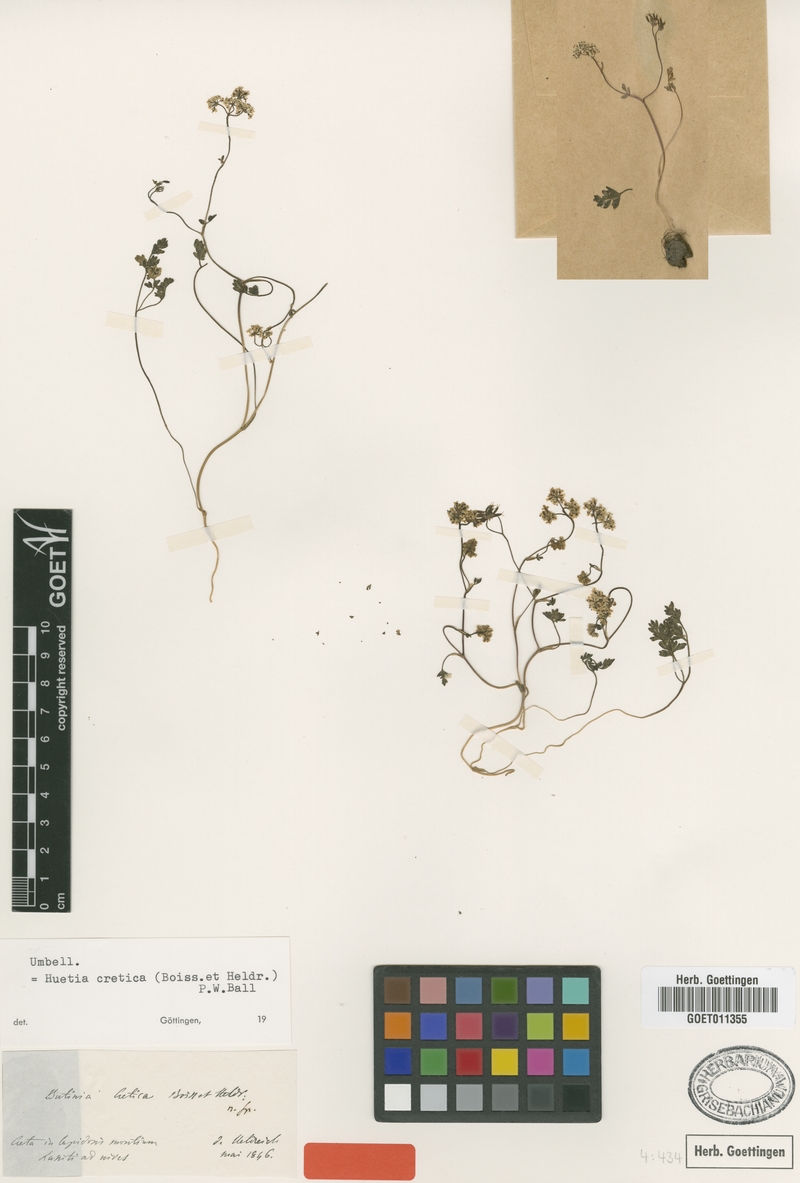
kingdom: Plantae
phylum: Tracheophyta
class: Magnoliopsida
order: Apiales
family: Apiaceae
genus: Geocaryum
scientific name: Geocaryum creticum
